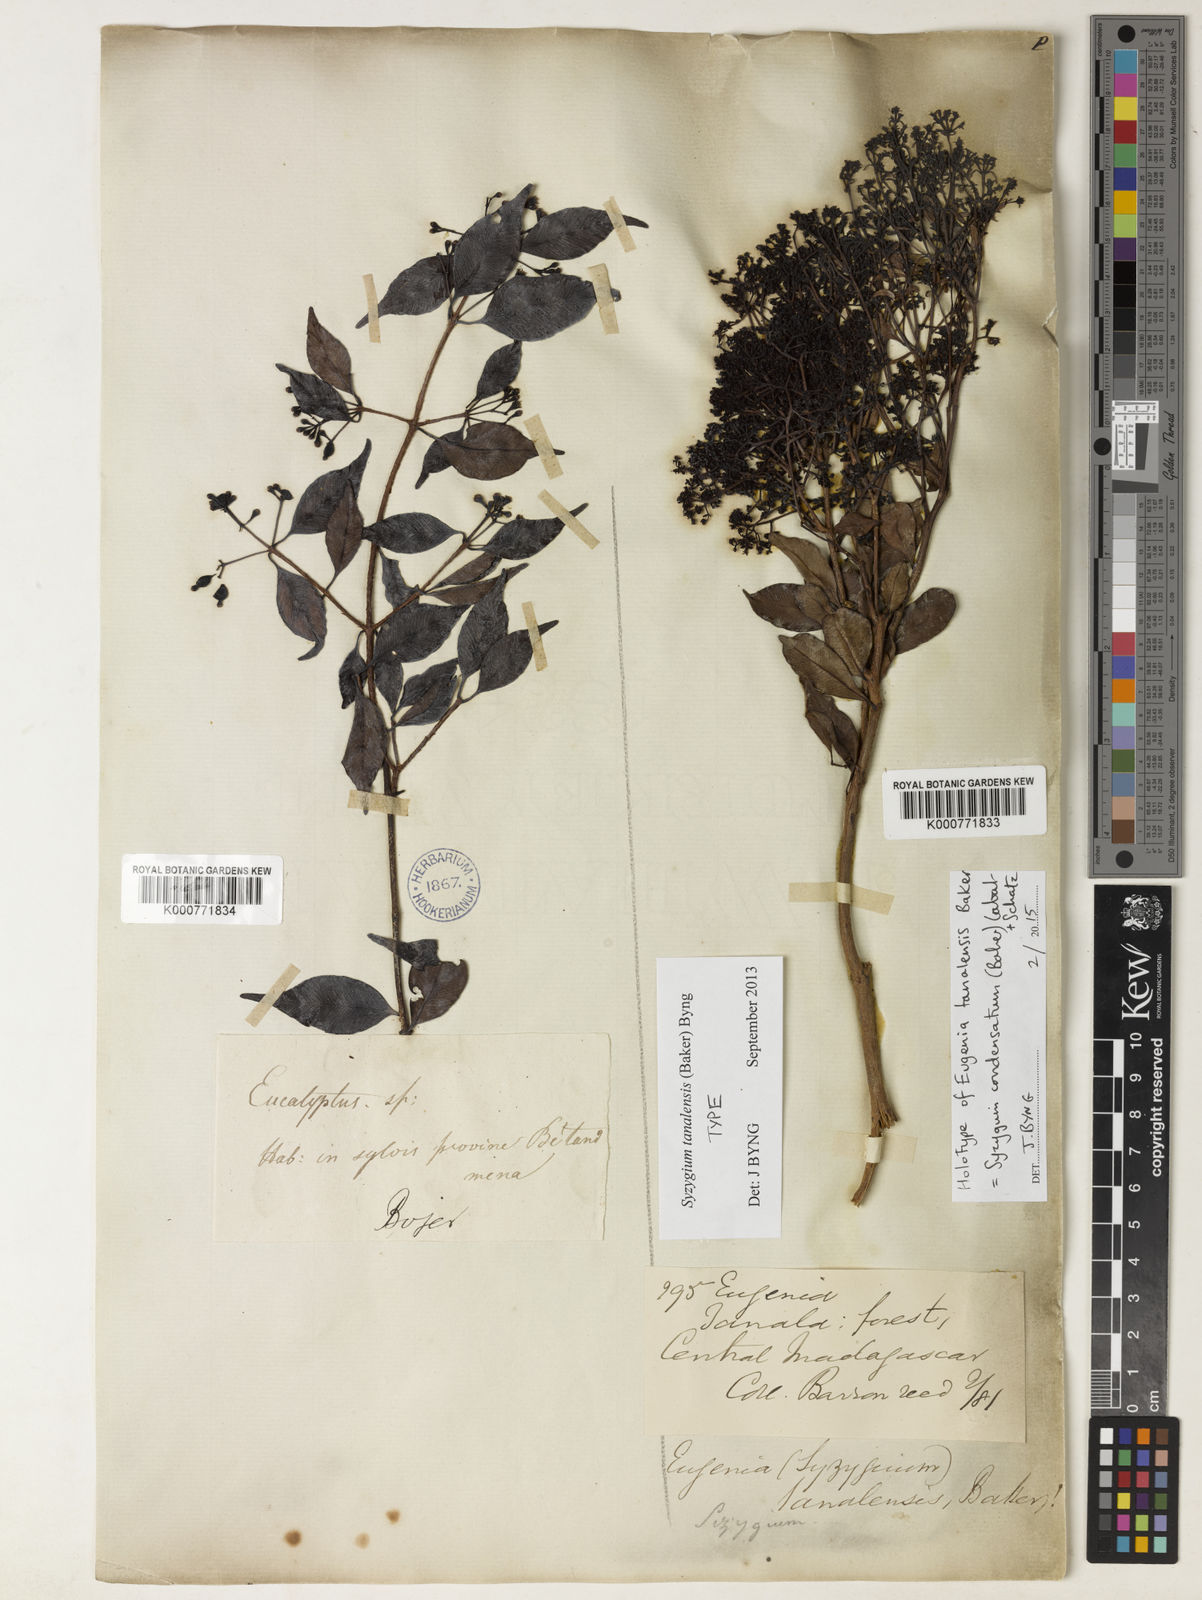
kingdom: Plantae
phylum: Tracheophyta
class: Magnoliopsida
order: Myrtales
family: Myrtaceae
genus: Eugenia
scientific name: Eugenia tanalensis
